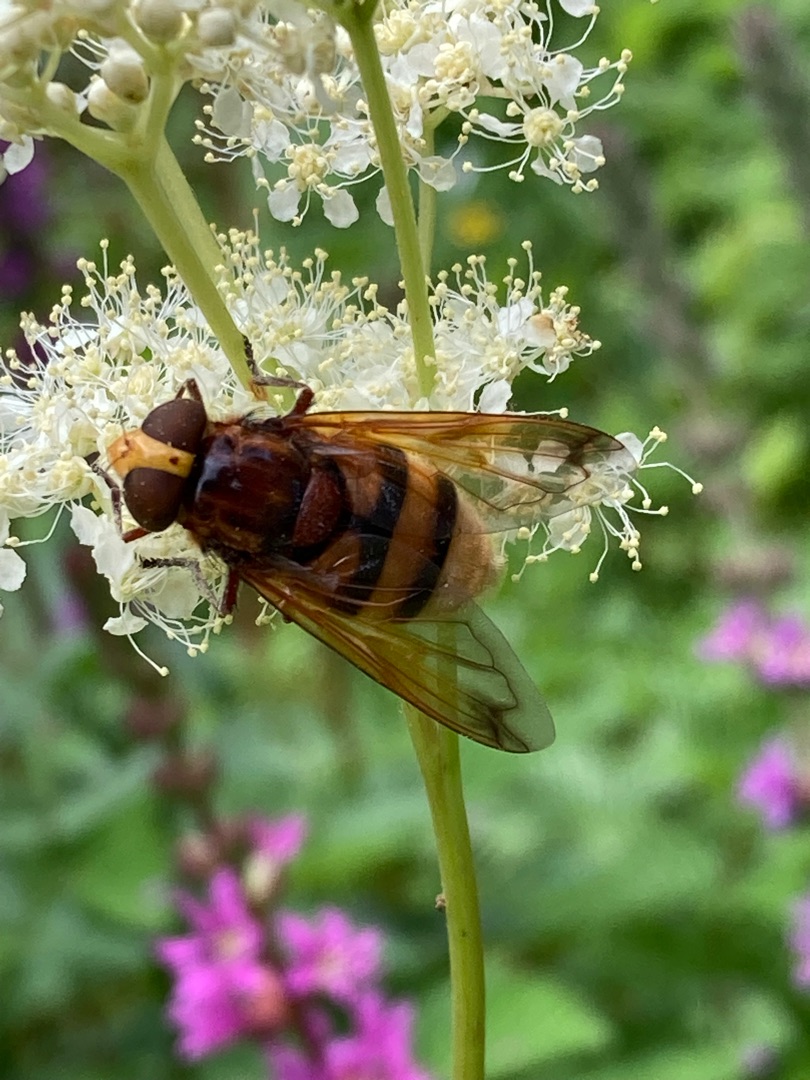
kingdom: Animalia
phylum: Arthropoda
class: Insecta
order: Diptera
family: Syrphidae
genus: Volucella
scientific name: Volucella zonaria
